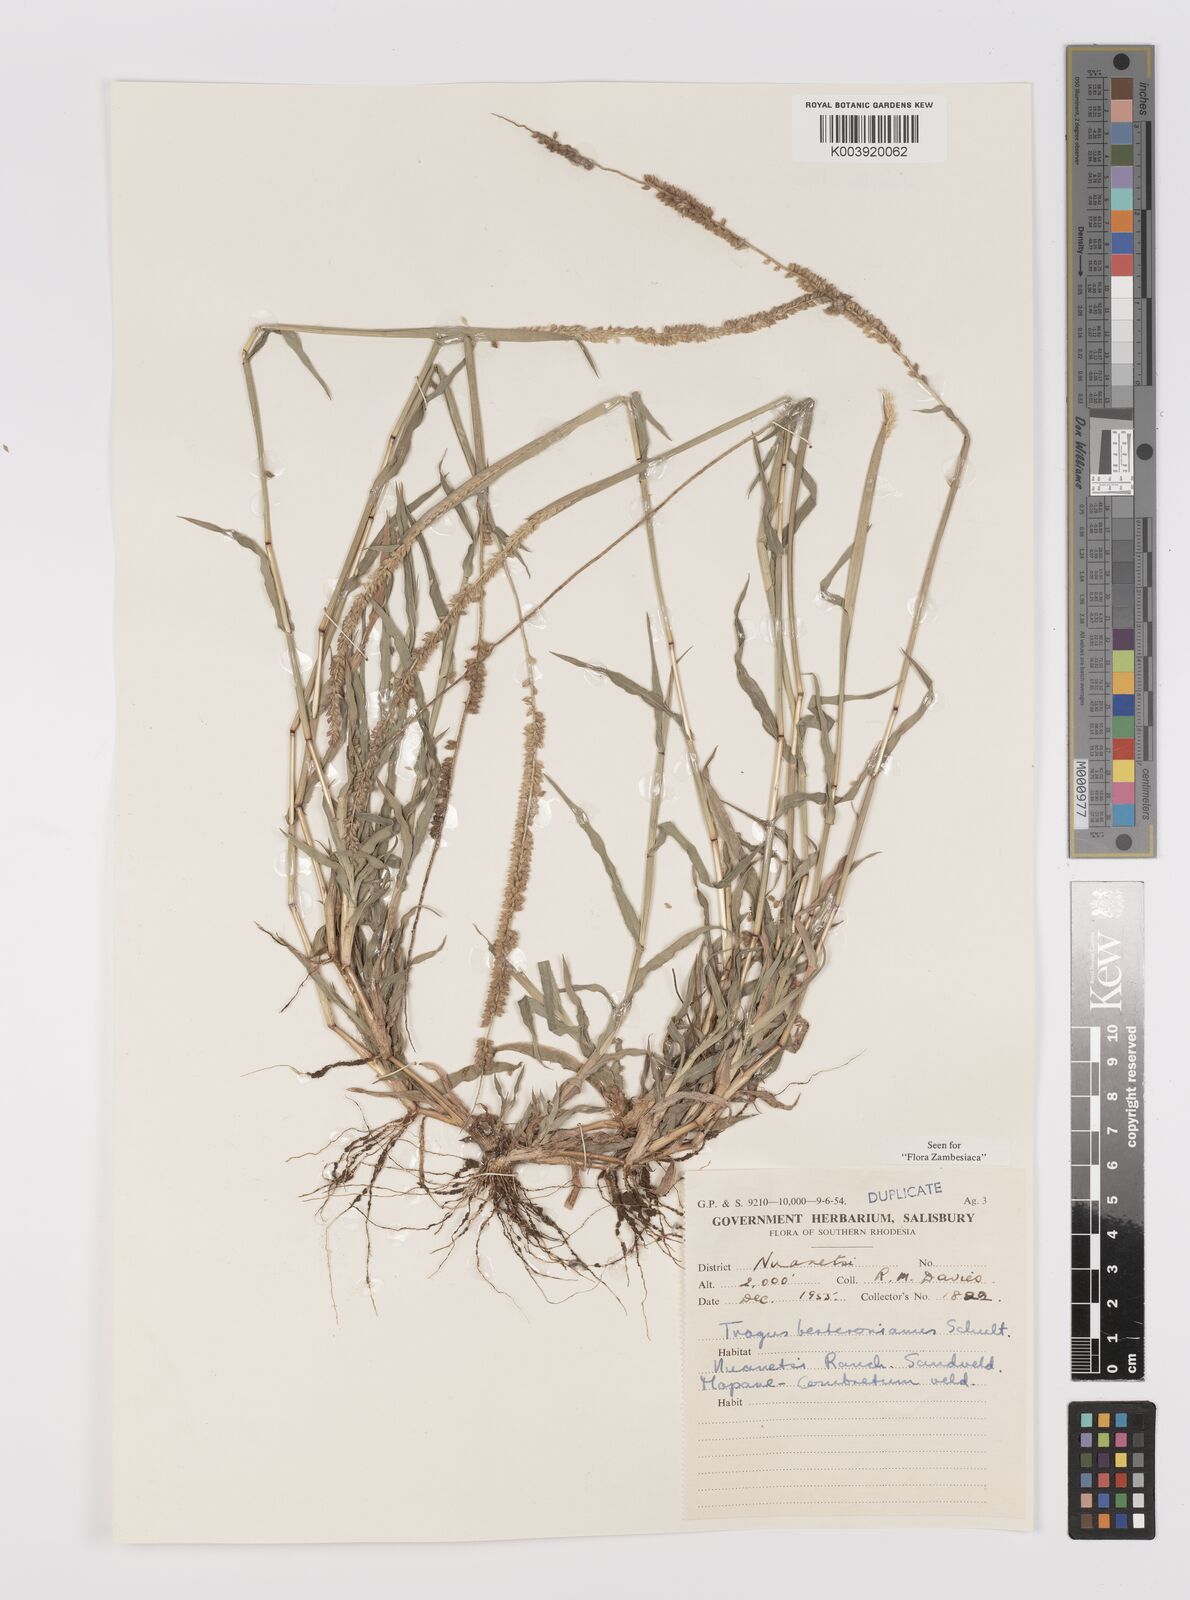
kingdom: Plantae
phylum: Tracheophyta
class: Liliopsida
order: Poales
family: Poaceae
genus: Tragus
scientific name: Tragus berteronianus
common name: African bur-grass
